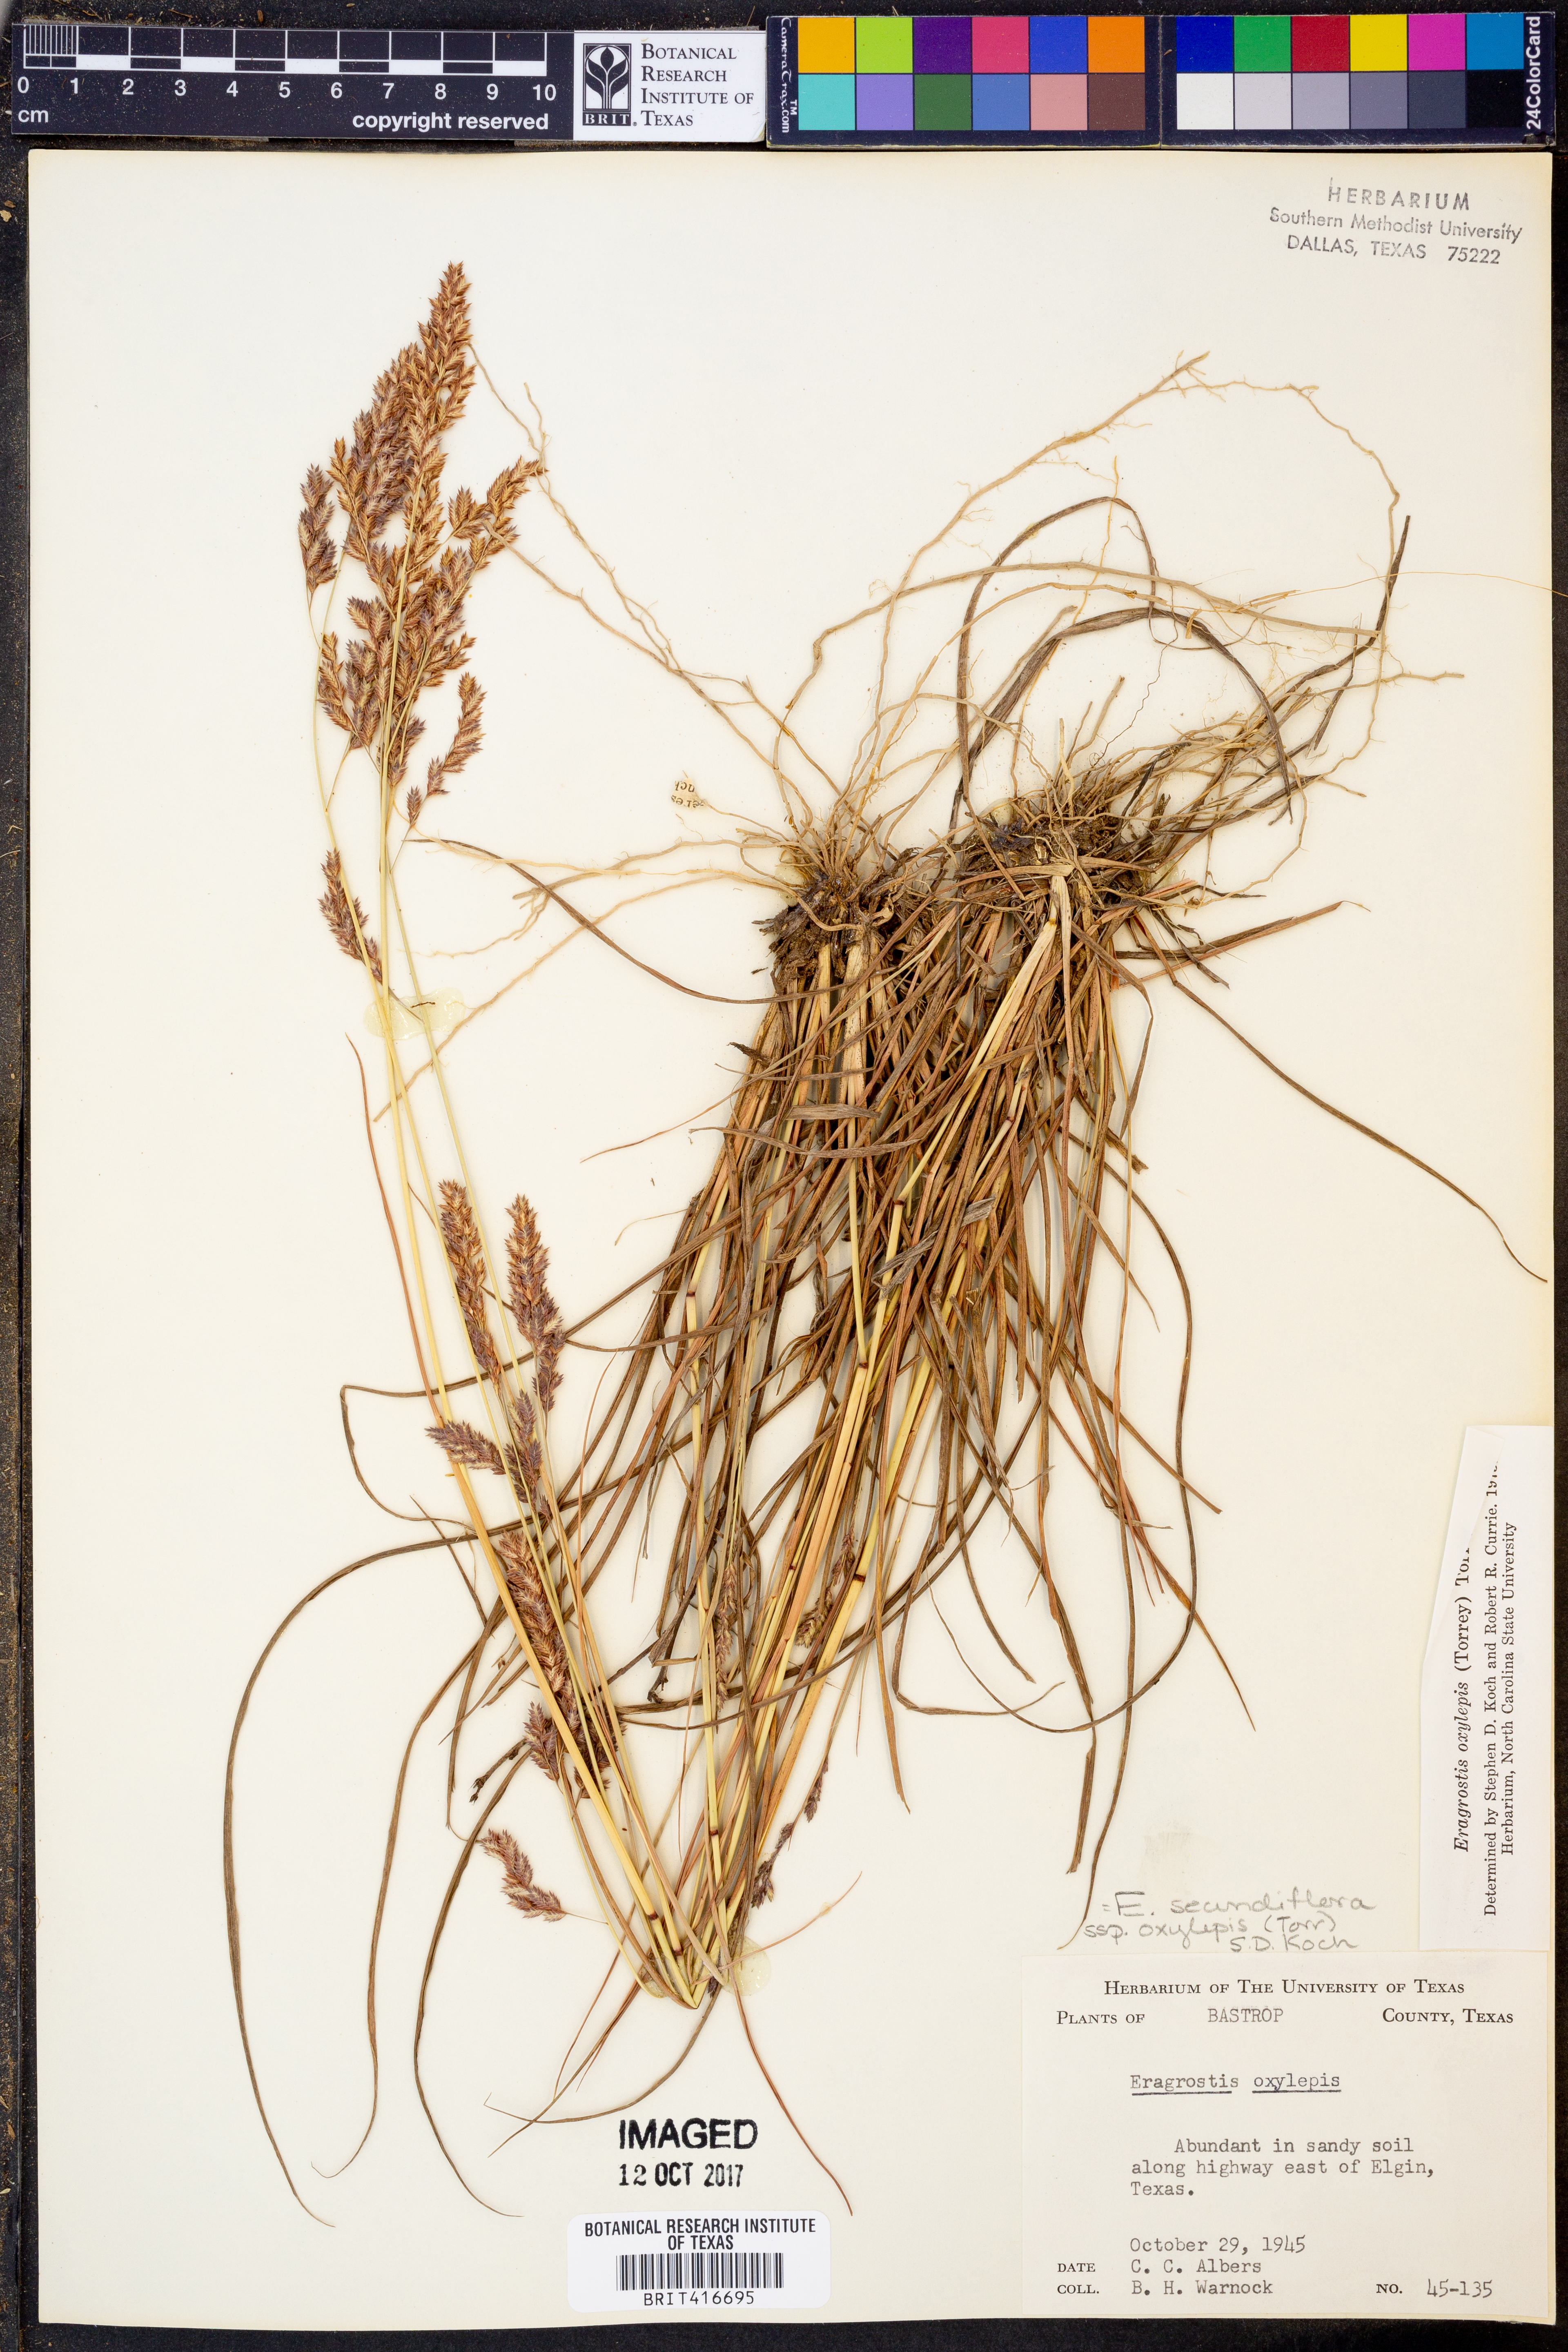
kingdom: Plantae
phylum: Tracheophyta
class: Liliopsida
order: Poales
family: Poaceae
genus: Eragrostis
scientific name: Eragrostis secundiflora
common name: Red love grass
